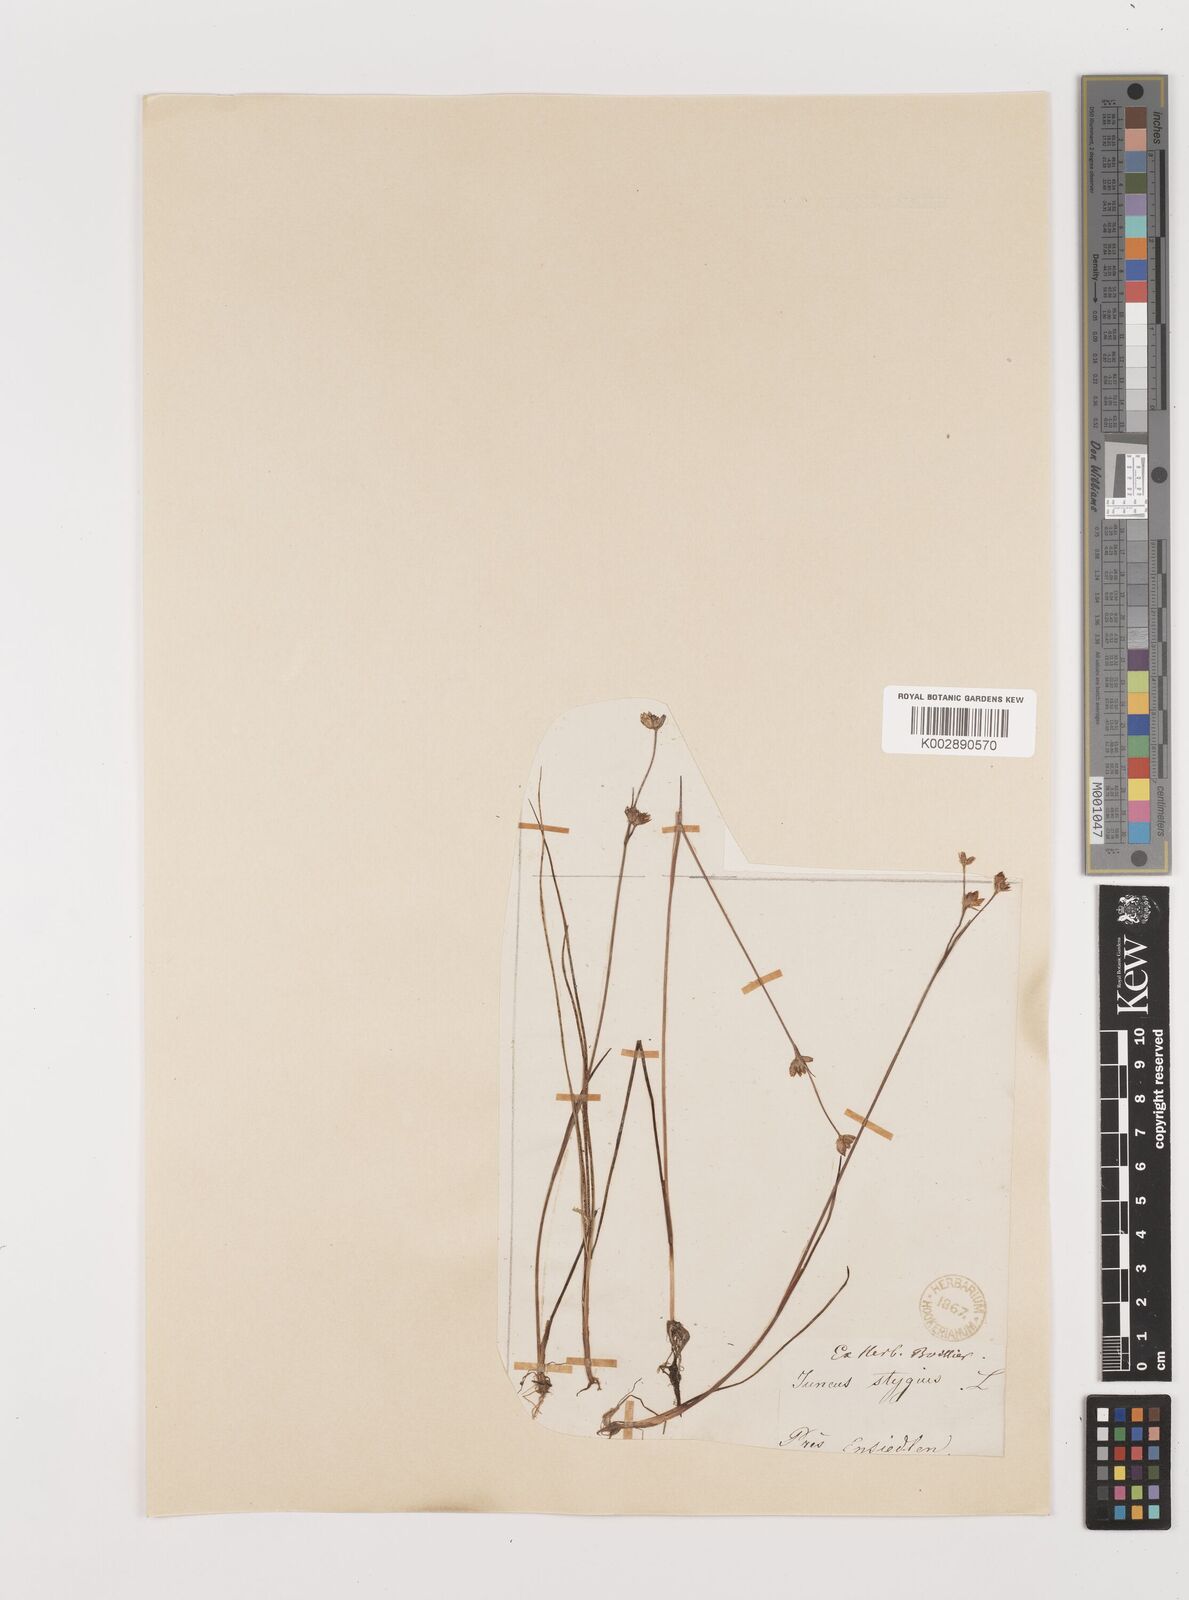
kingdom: Plantae
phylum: Tracheophyta
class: Liliopsida
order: Poales
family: Juncaceae
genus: Juncus
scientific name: Juncus stygius
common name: Bog rush
